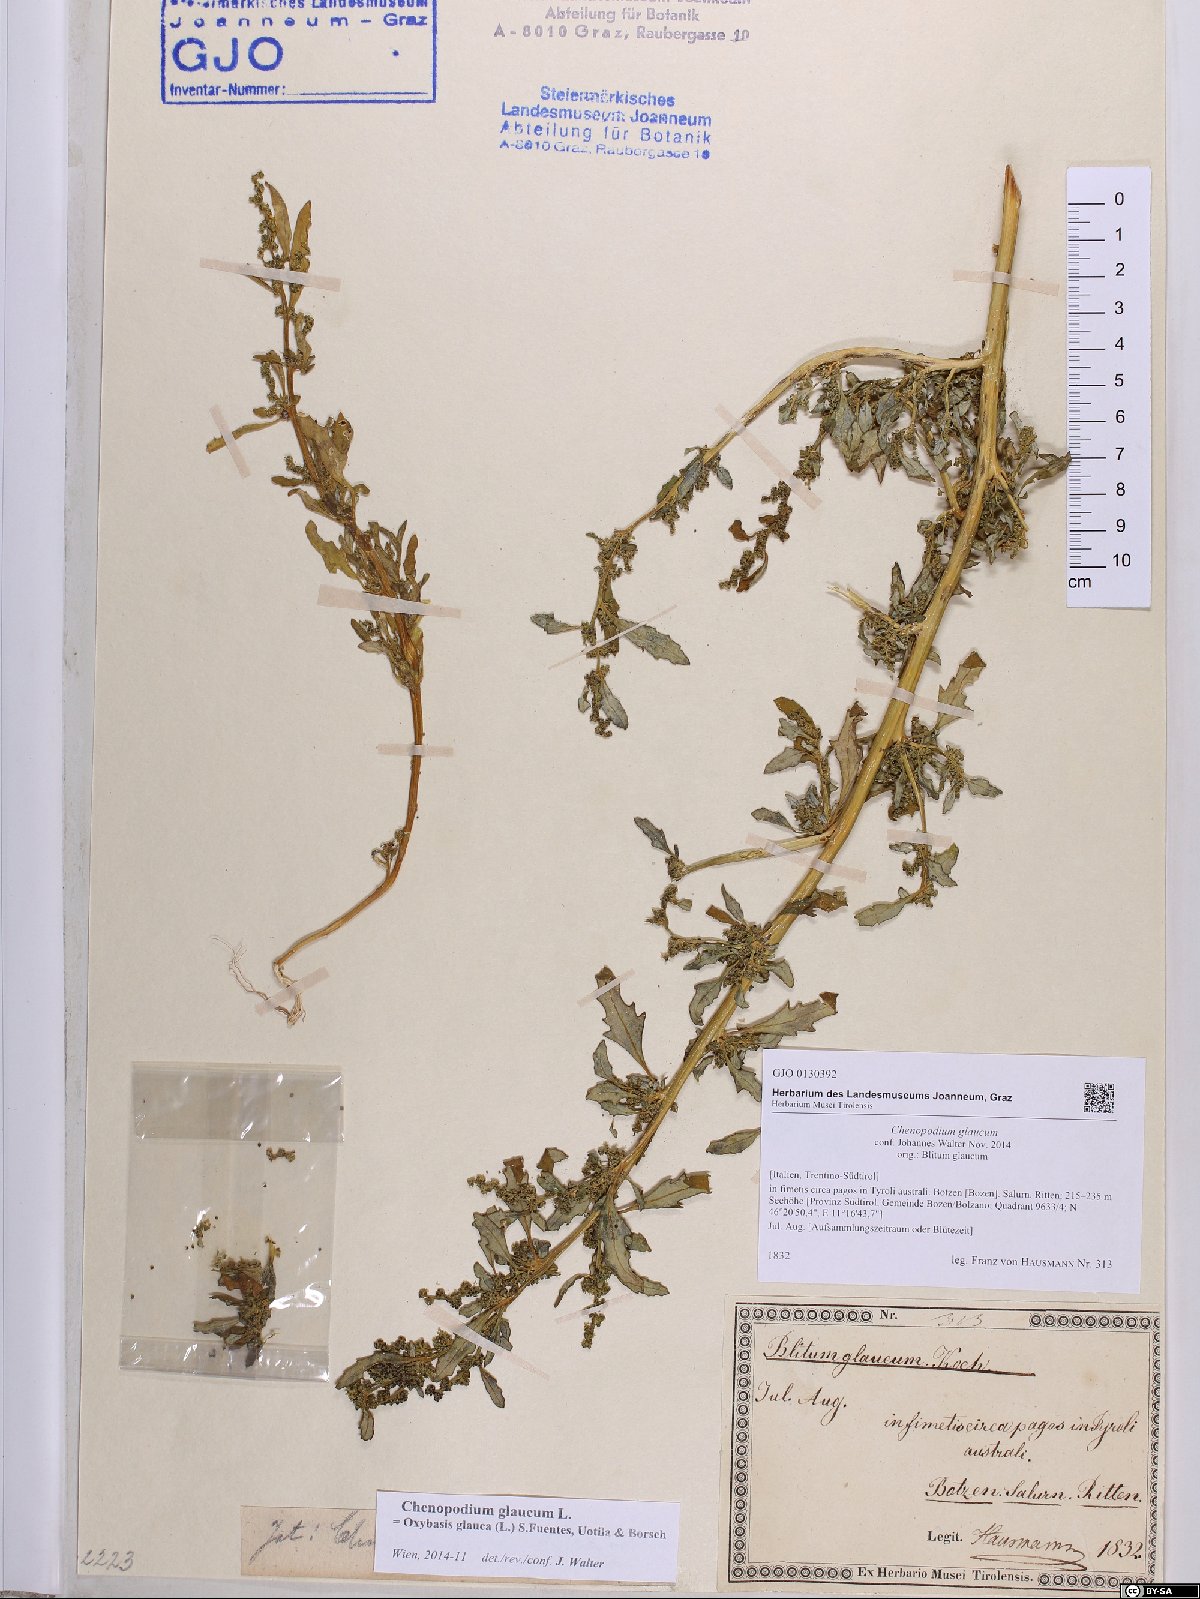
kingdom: Plantae
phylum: Tracheophyta
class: Magnoliopsida
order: Caryophyllales
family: Amaranthaceae
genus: Oxybasis
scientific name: Oxybasis glauca
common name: Glaucous goosefoot
